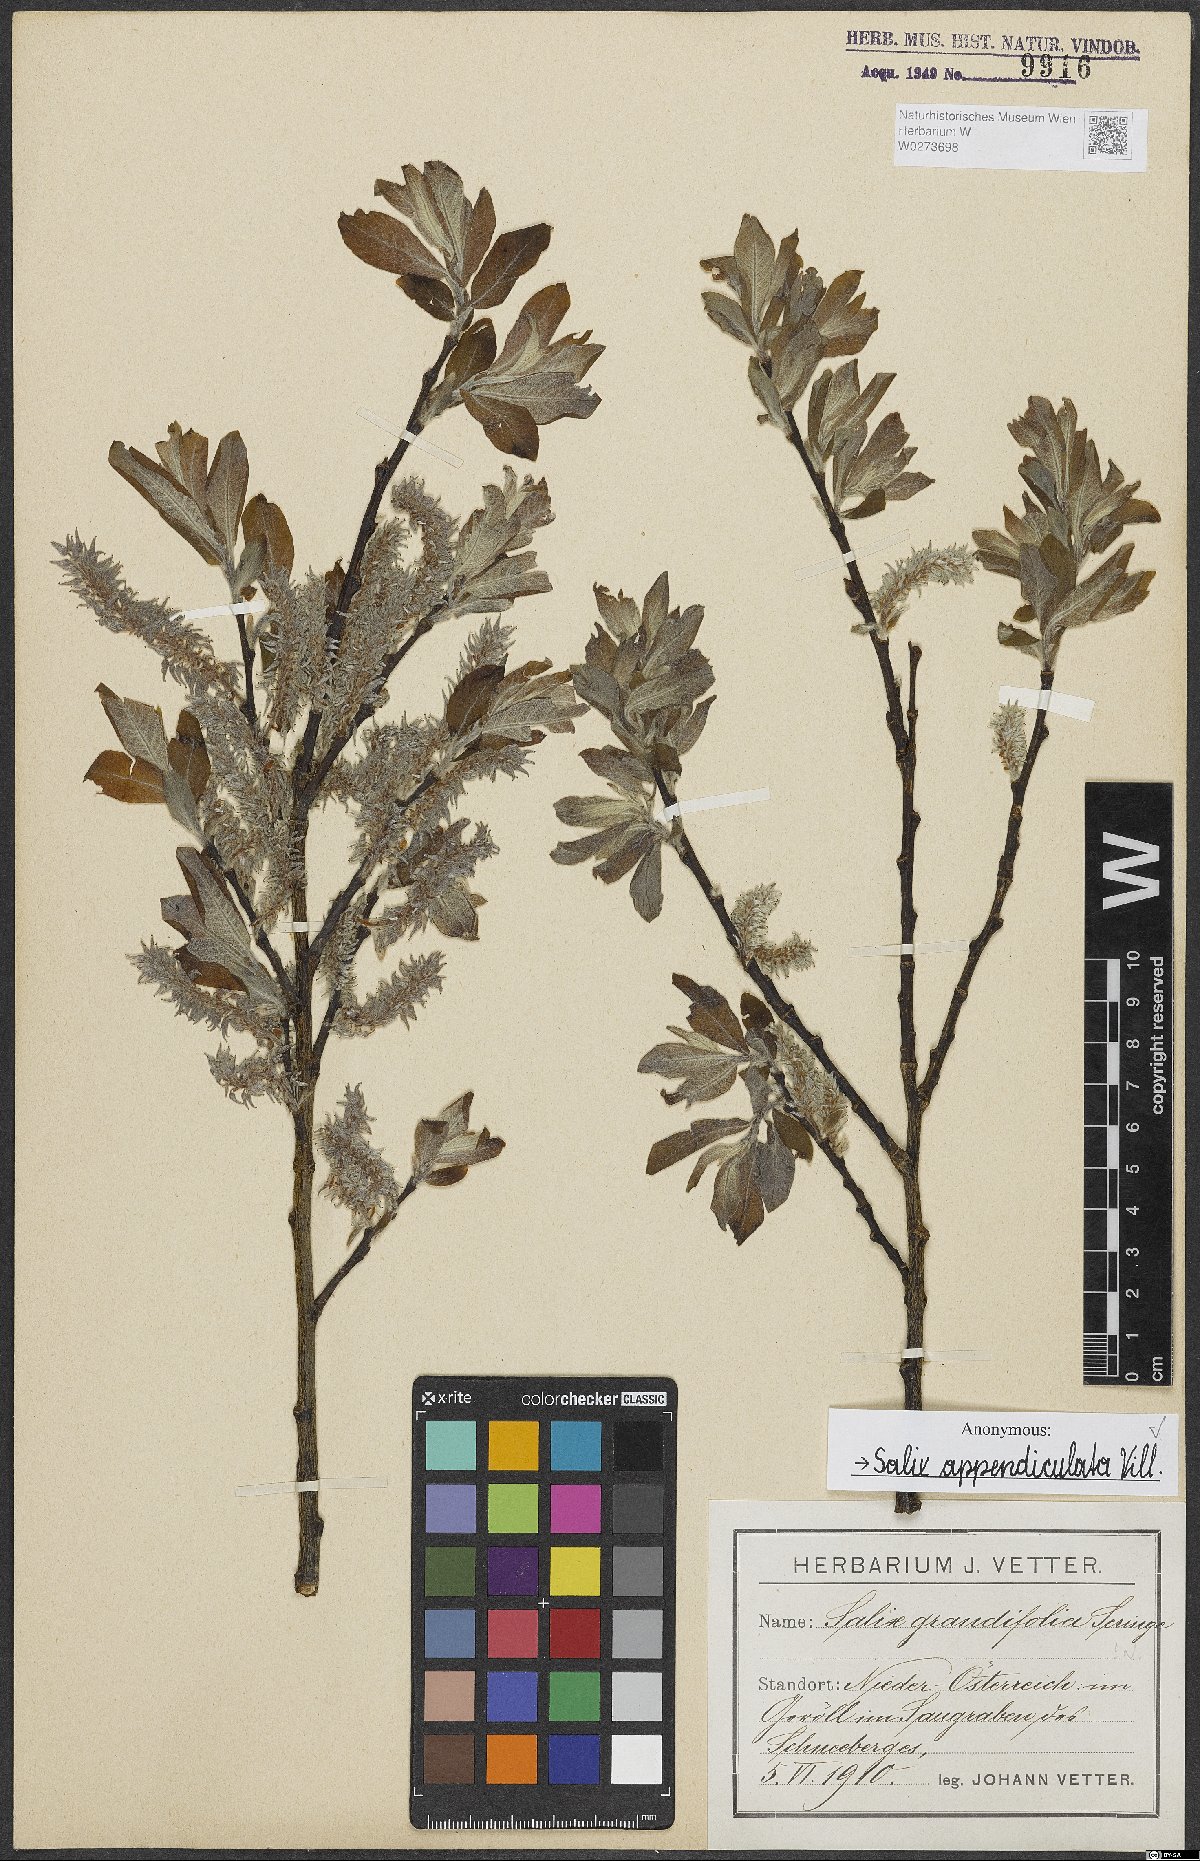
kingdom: Plantae
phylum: Tracheophyta
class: Magnoliopsida
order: Malpighiales
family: Salicaceae
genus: Salix
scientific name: Salix appendiculata
